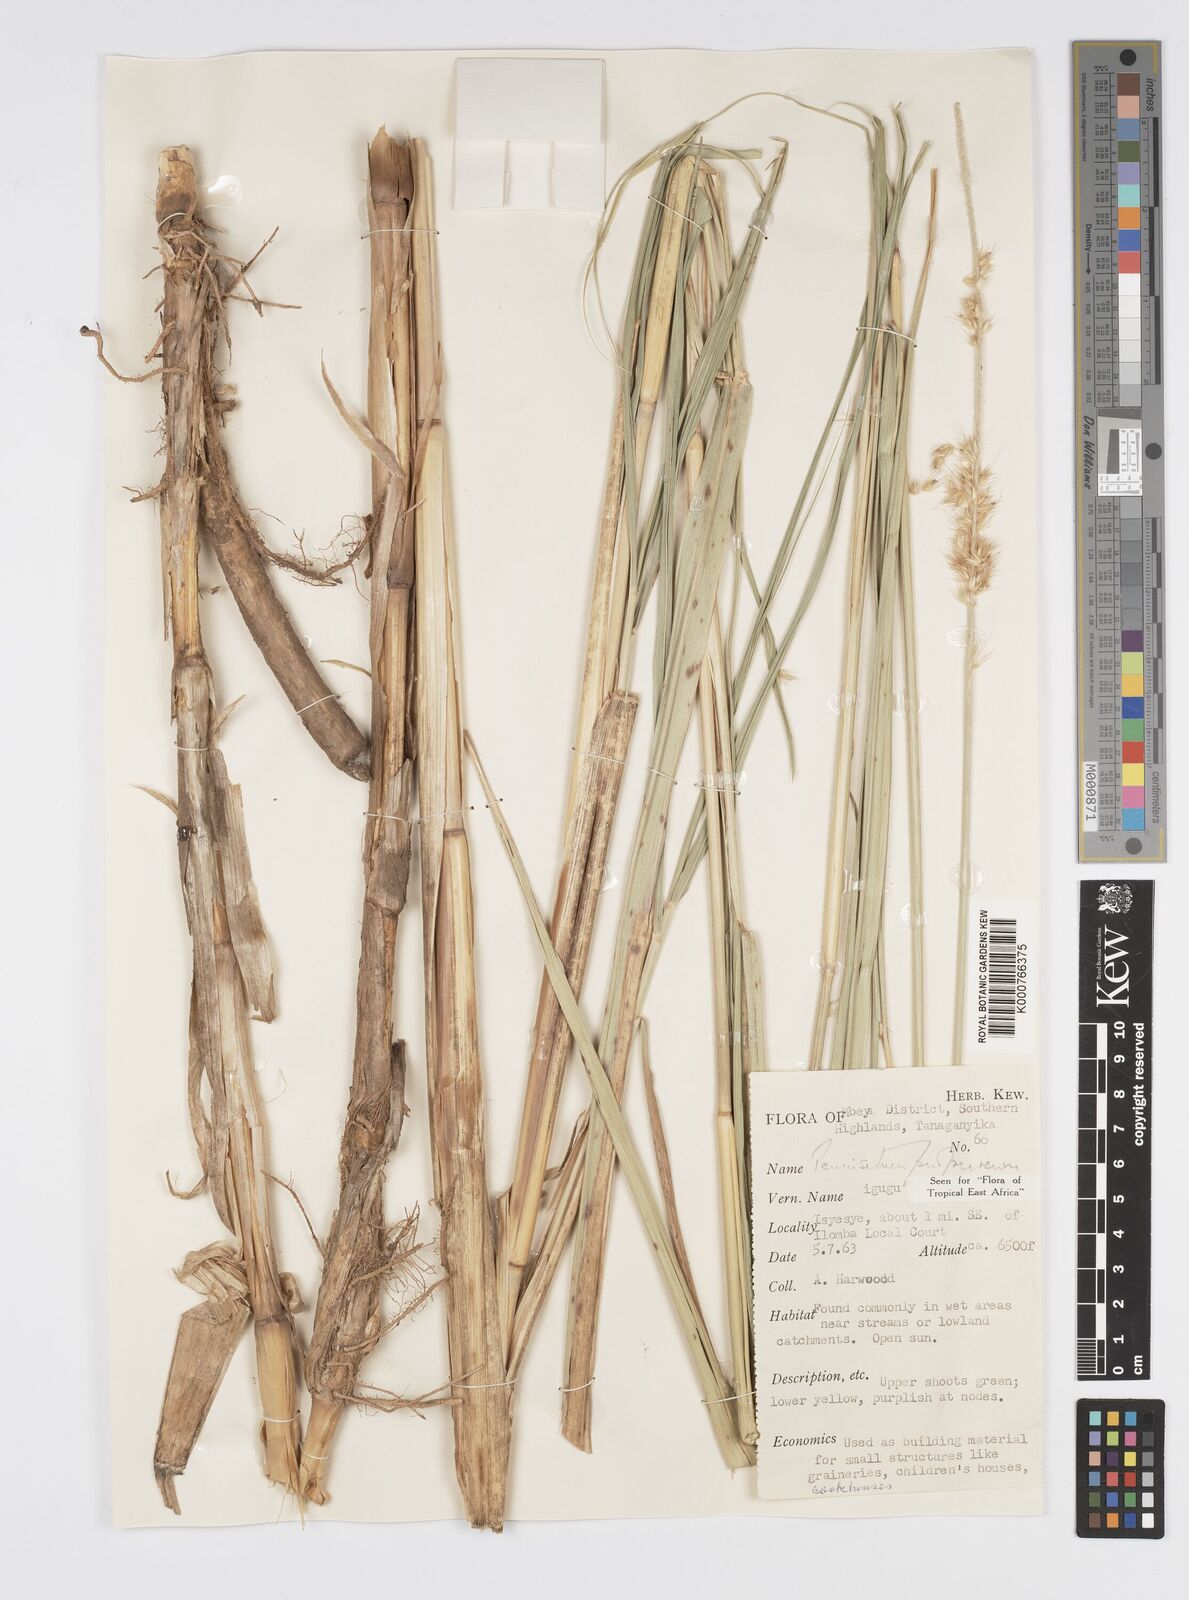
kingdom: Plantae
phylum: Tracheophyta
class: Liliopsida
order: Poales
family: Poaceae
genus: Cenchrus
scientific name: Cenchrus purpureus
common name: Elephant grass
